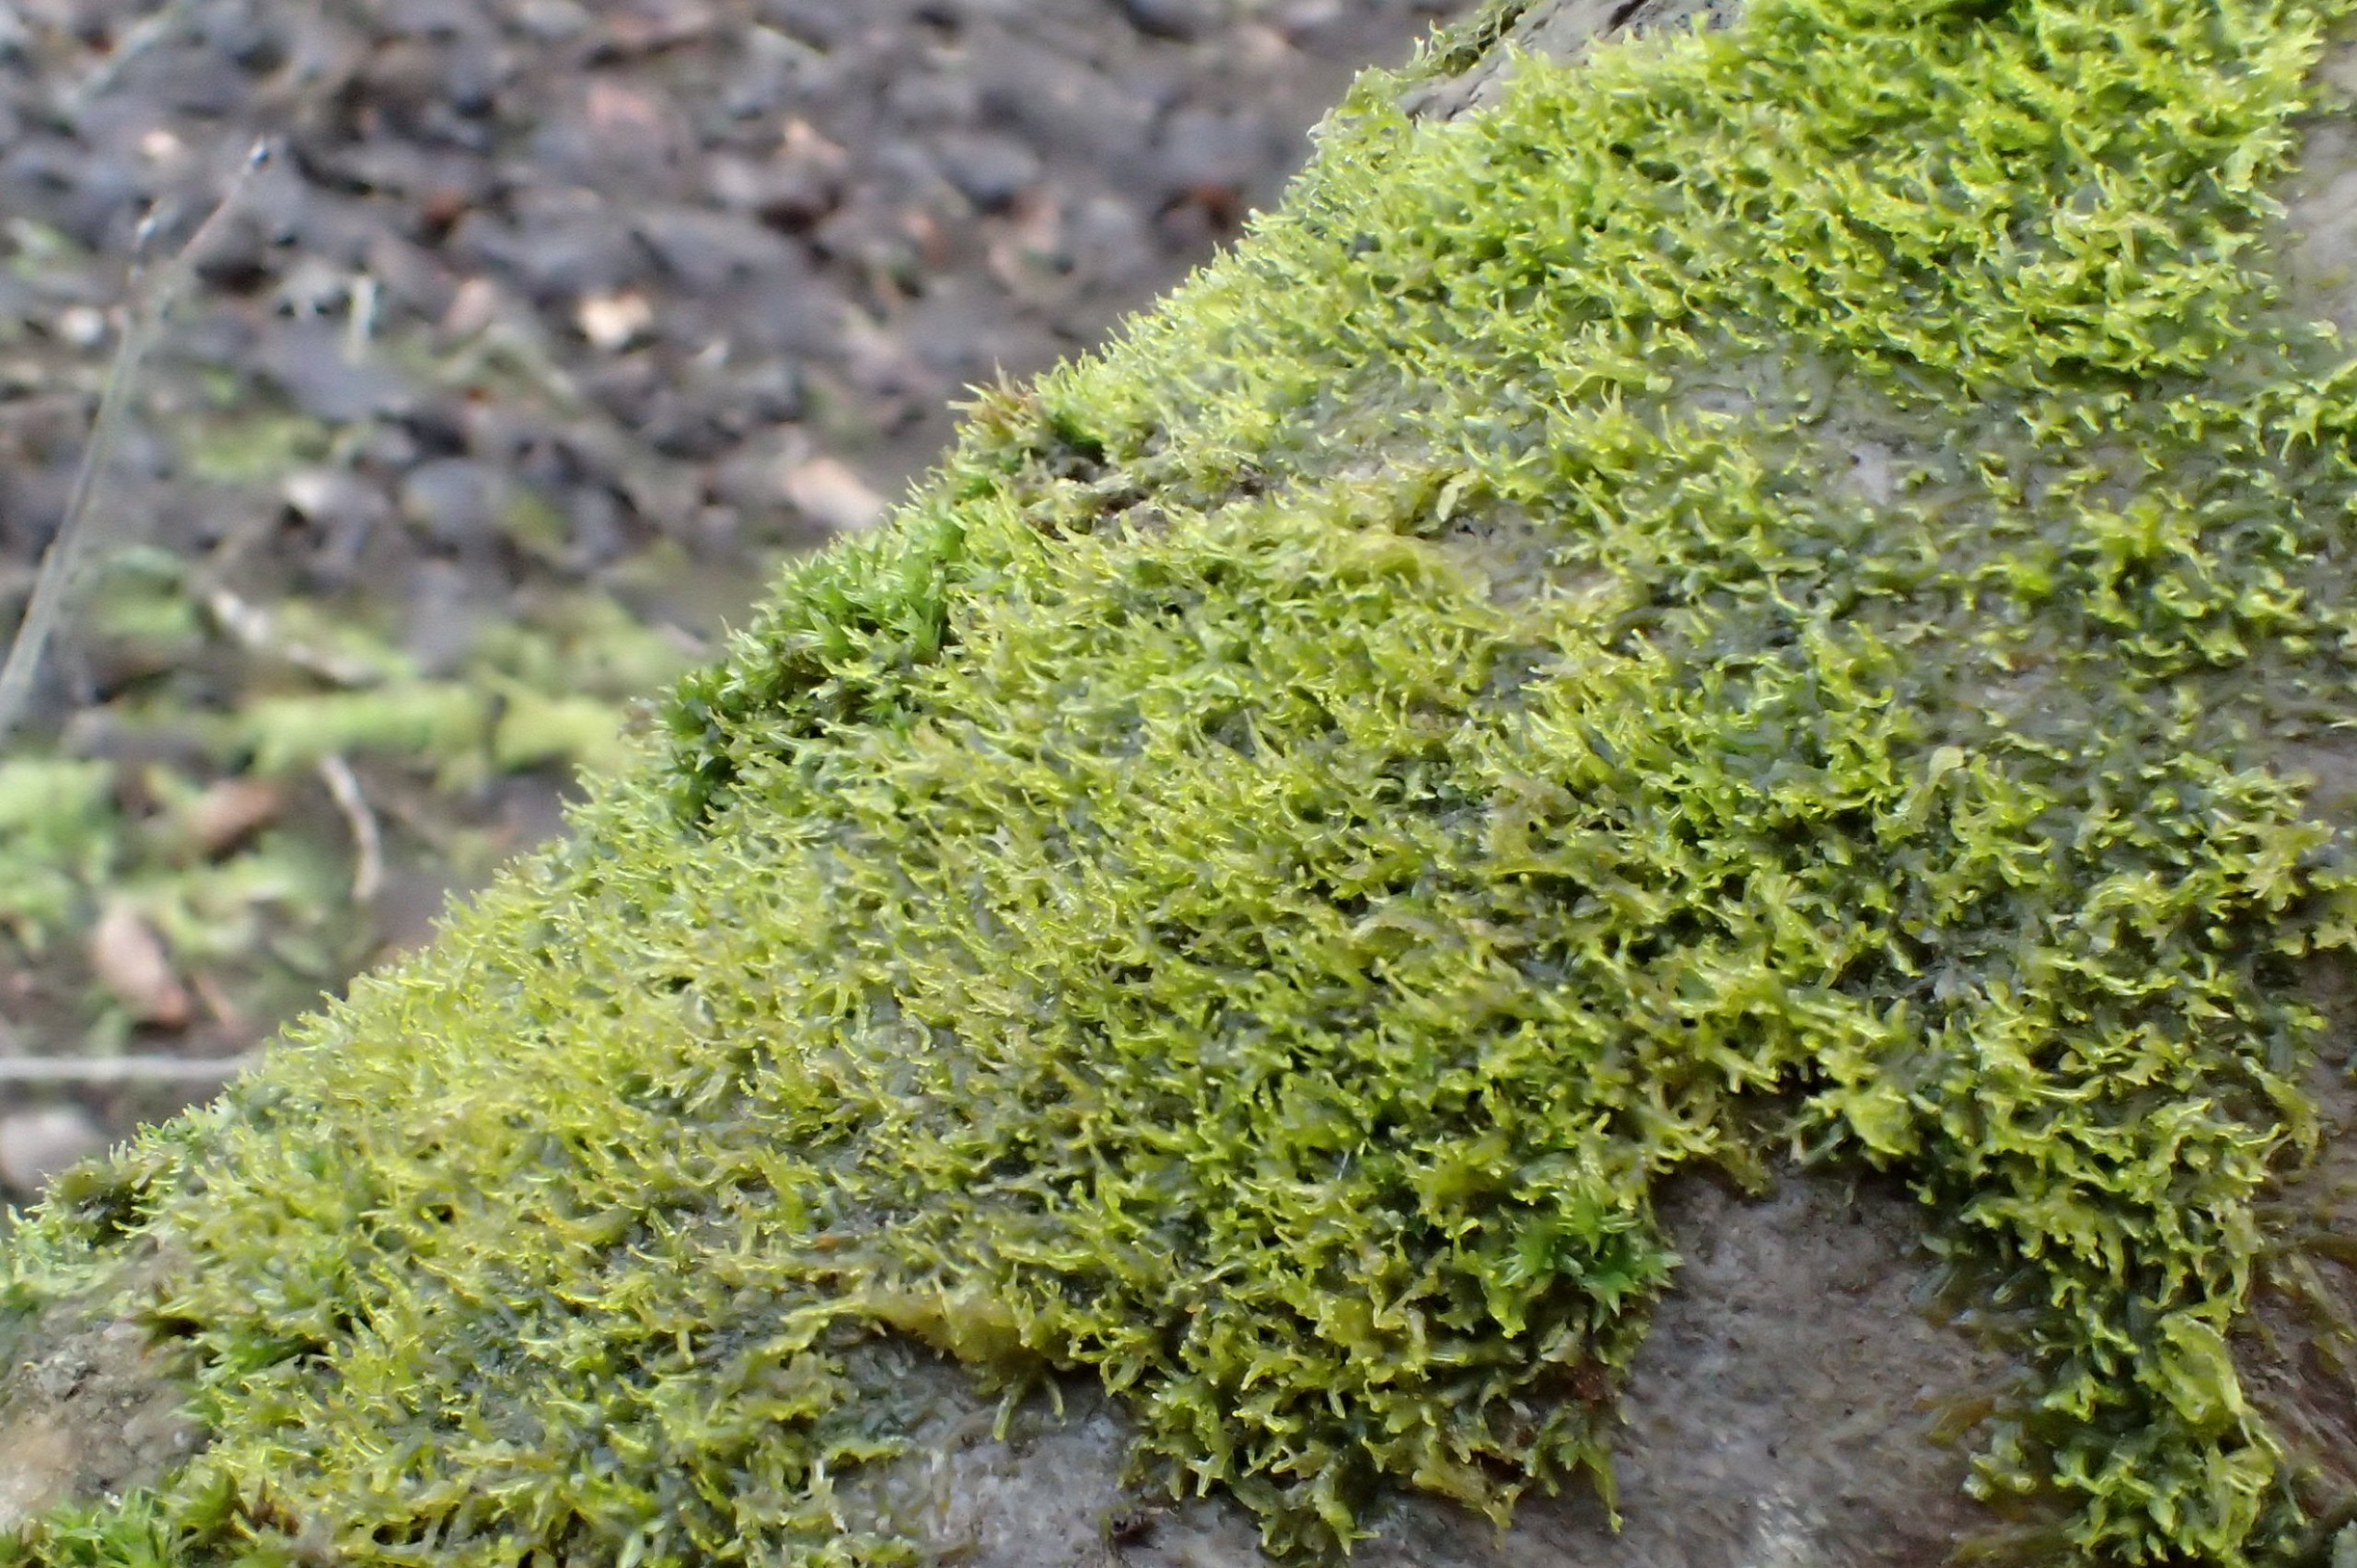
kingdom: Plantae
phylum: Marchantiophyta
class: Jungermanniopsida
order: Metzgeriales
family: Aneuraceae
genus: Riccardia
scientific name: Riccardia palmata
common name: Blågrøn gaffelløv
